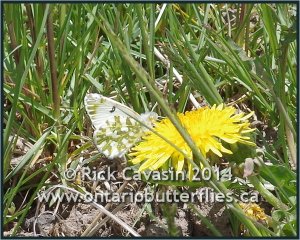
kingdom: Animalia
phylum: Arthropoda
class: Insecta
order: Lepidoptera
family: Pieridae
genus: Euchloe
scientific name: Euchloe ausonides
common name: Large Marble
